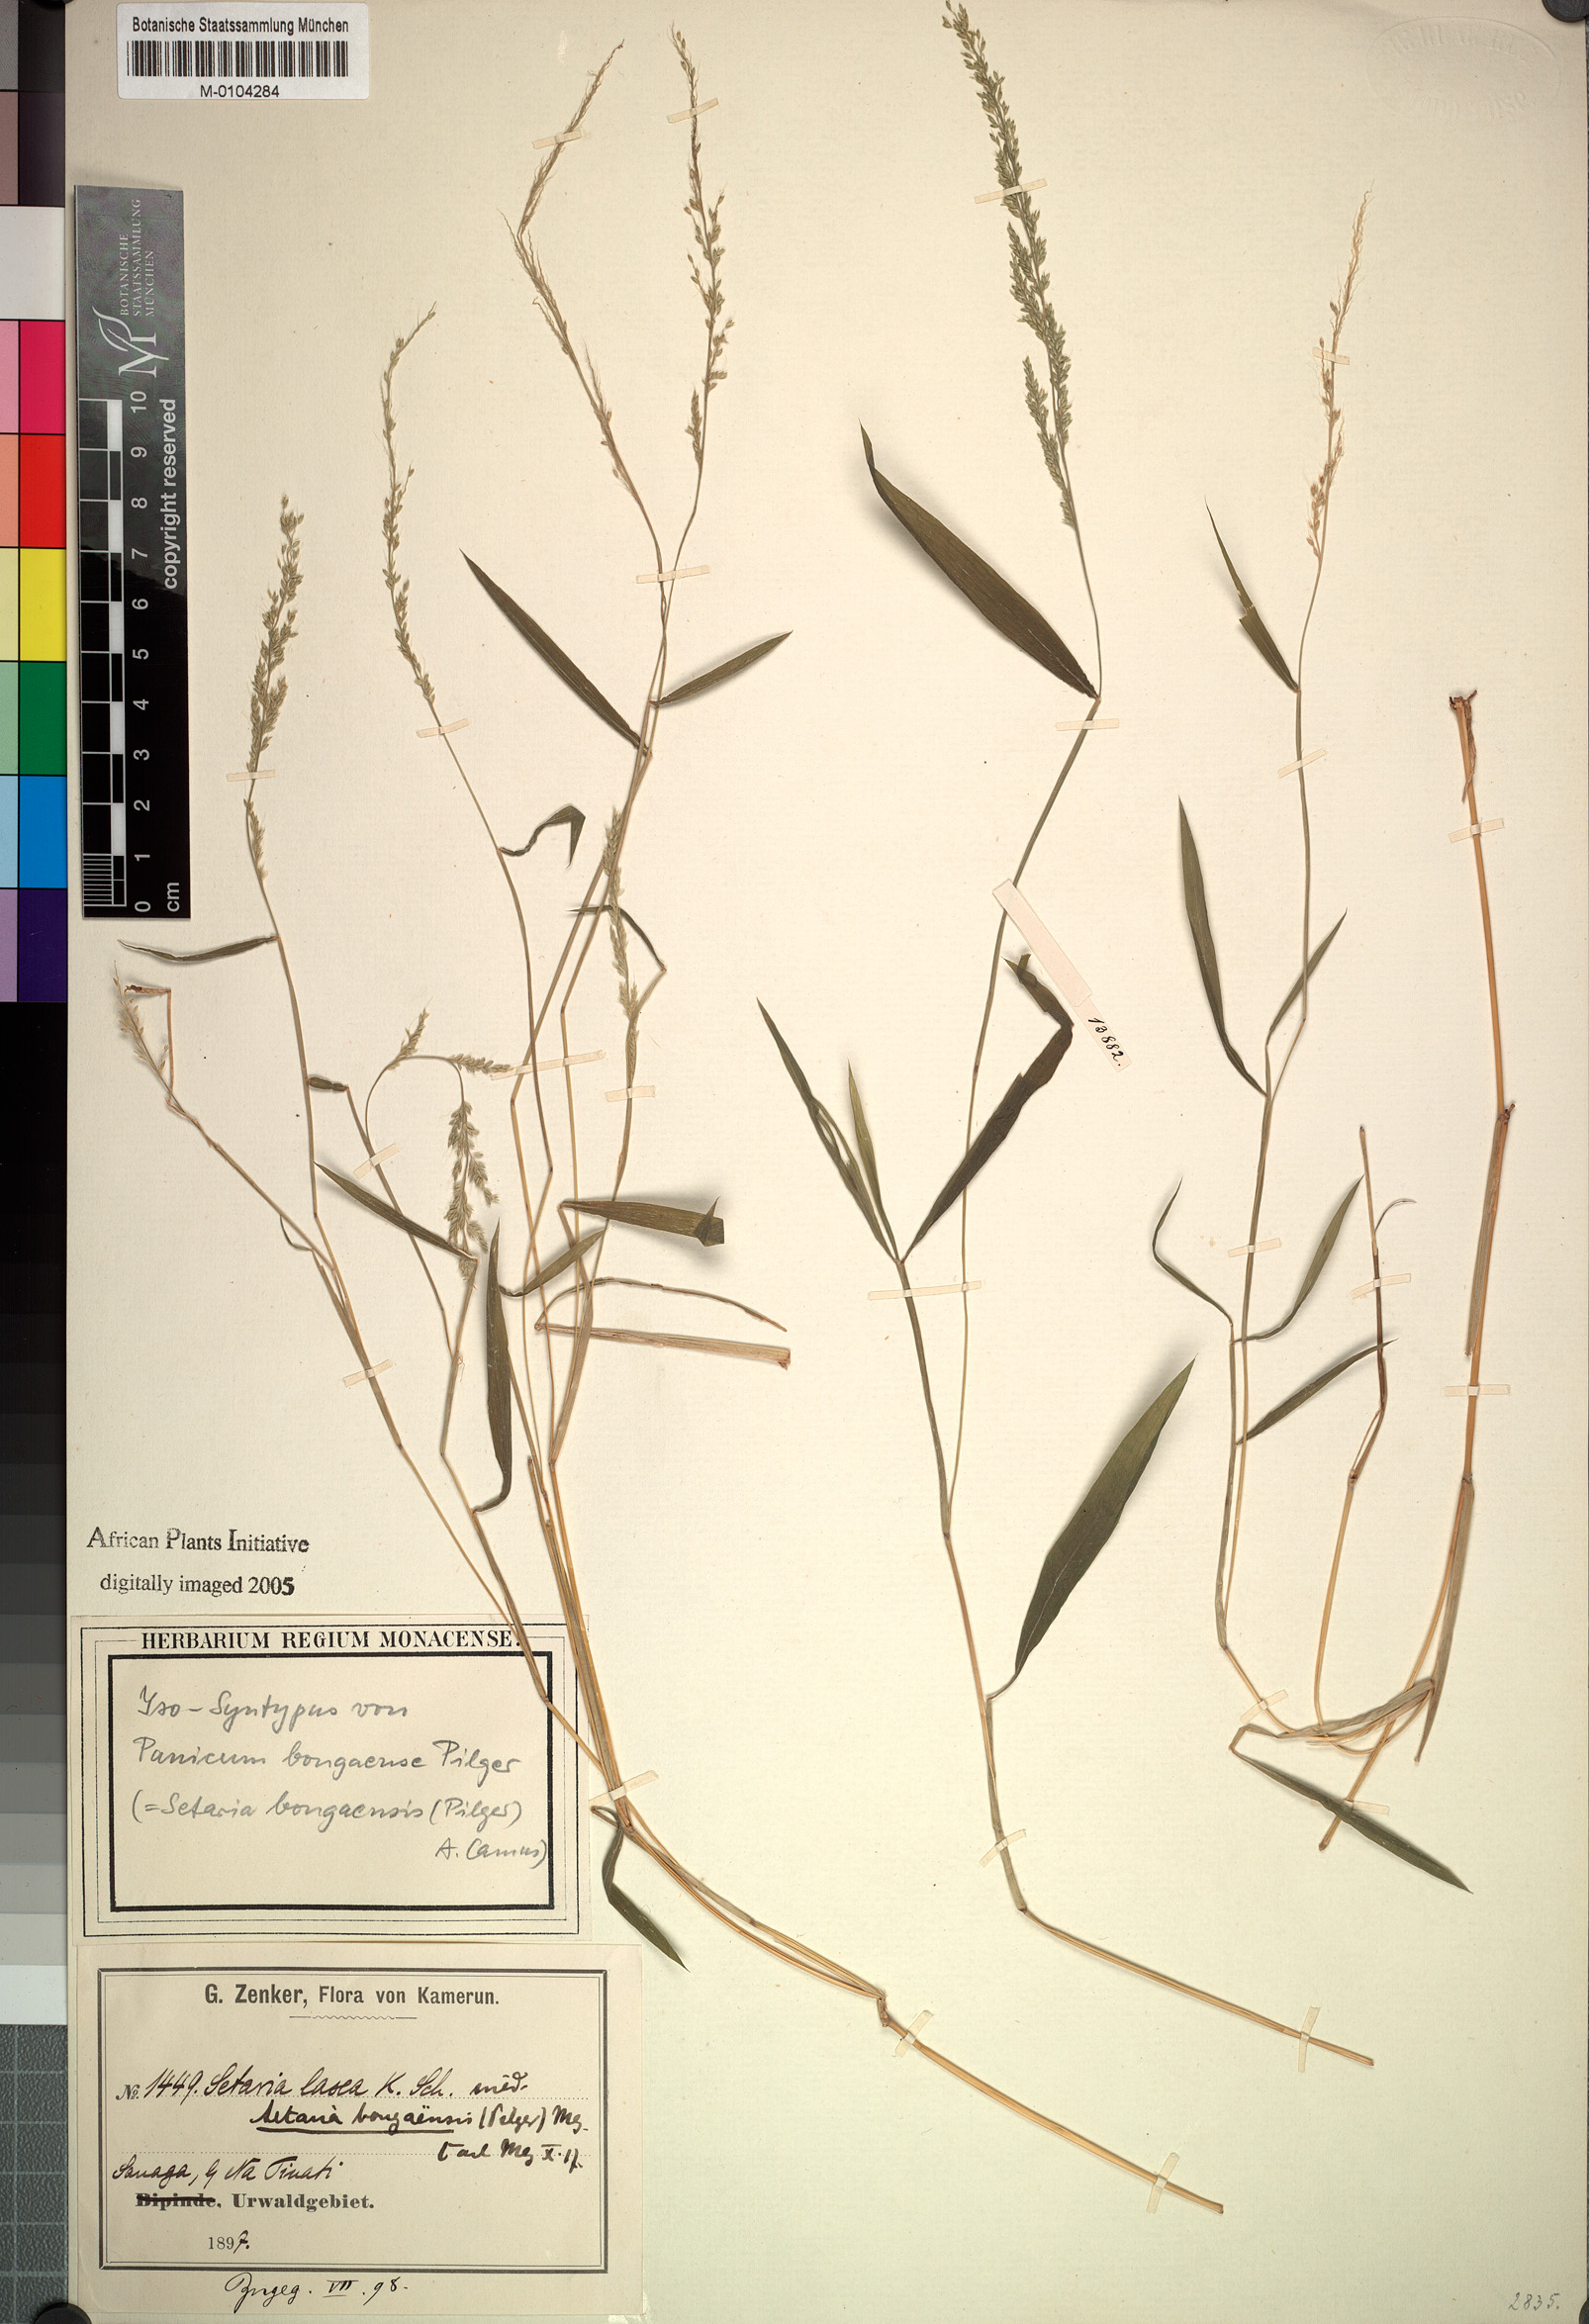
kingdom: Plantae
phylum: Tracheophyta
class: Liliopsida
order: Poales
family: Poaceae
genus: Setaria
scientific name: Setaria bongaensis
